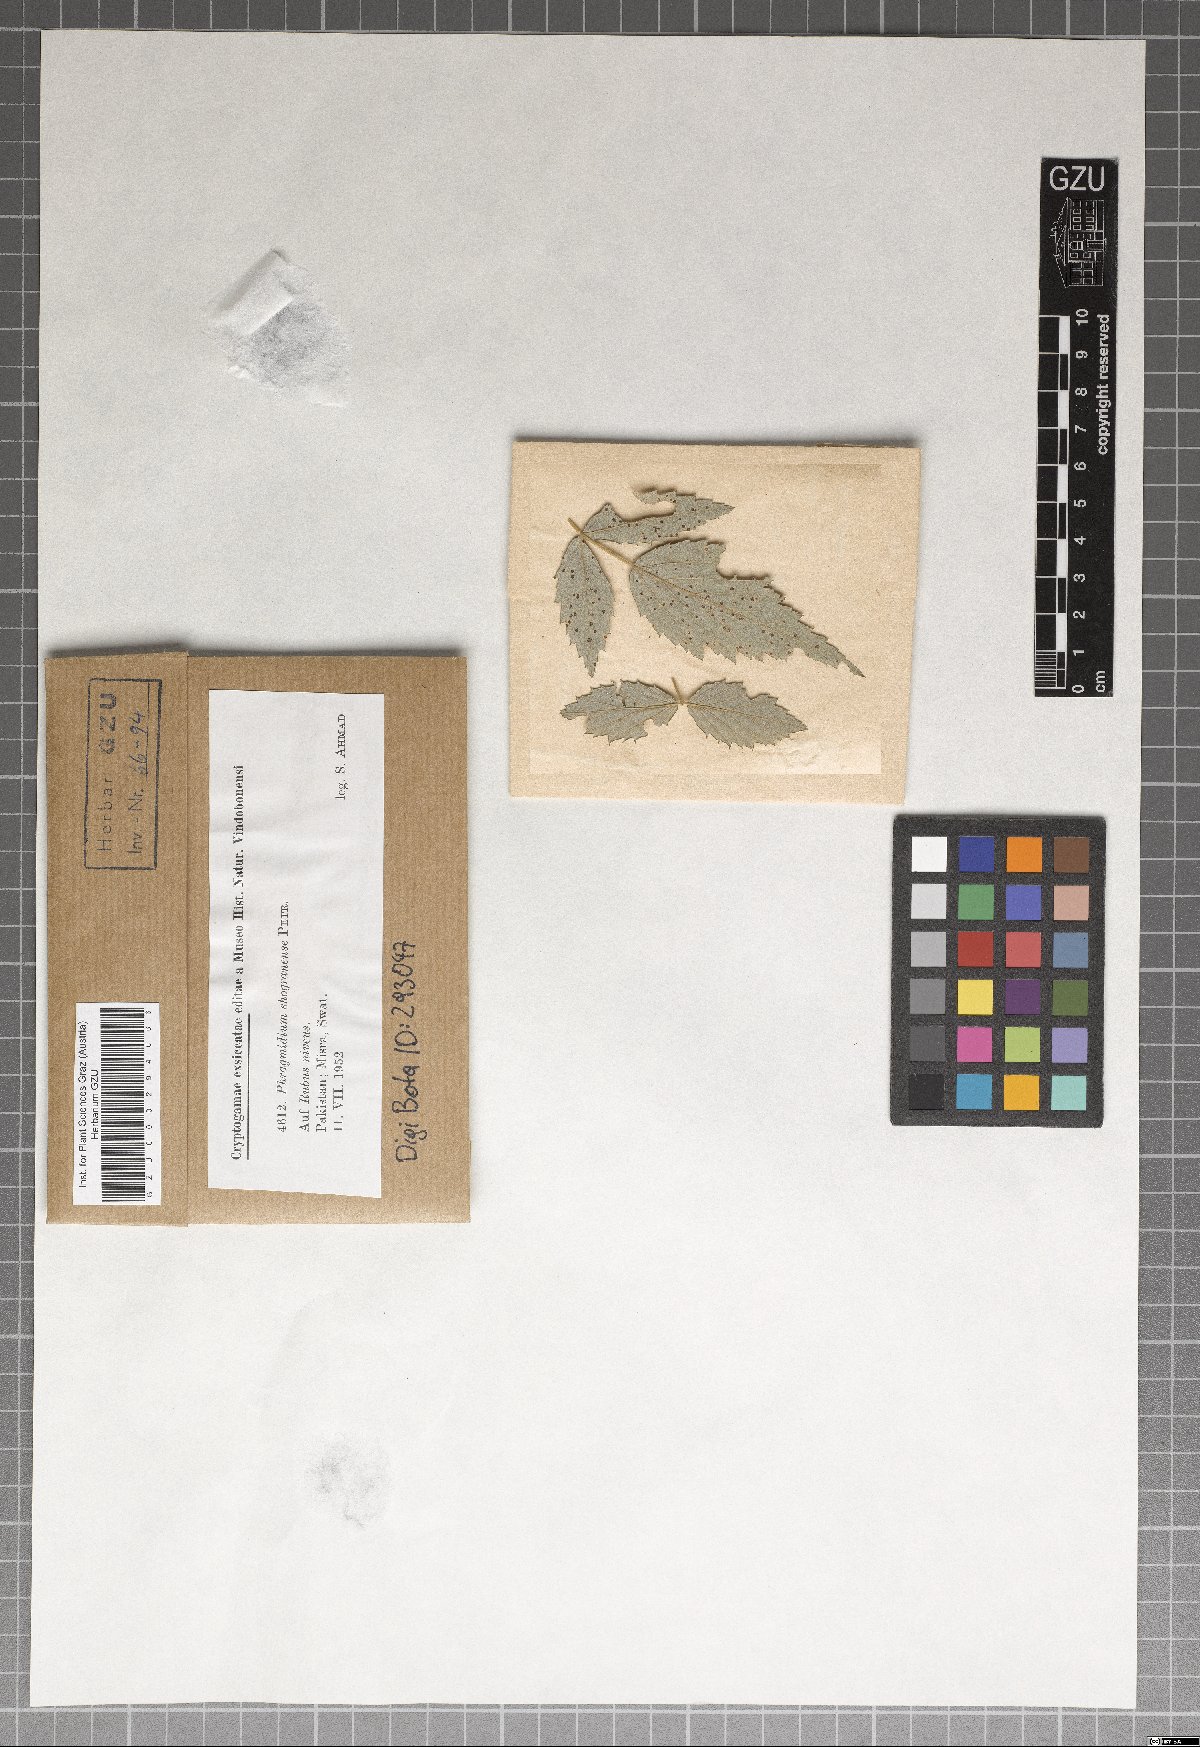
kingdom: Fungi
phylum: Basidiomycota
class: Pucciniomycetes
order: Pucciniales
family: Phragmidiaceae
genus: Phragmidium
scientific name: Phragmidium shogranense
